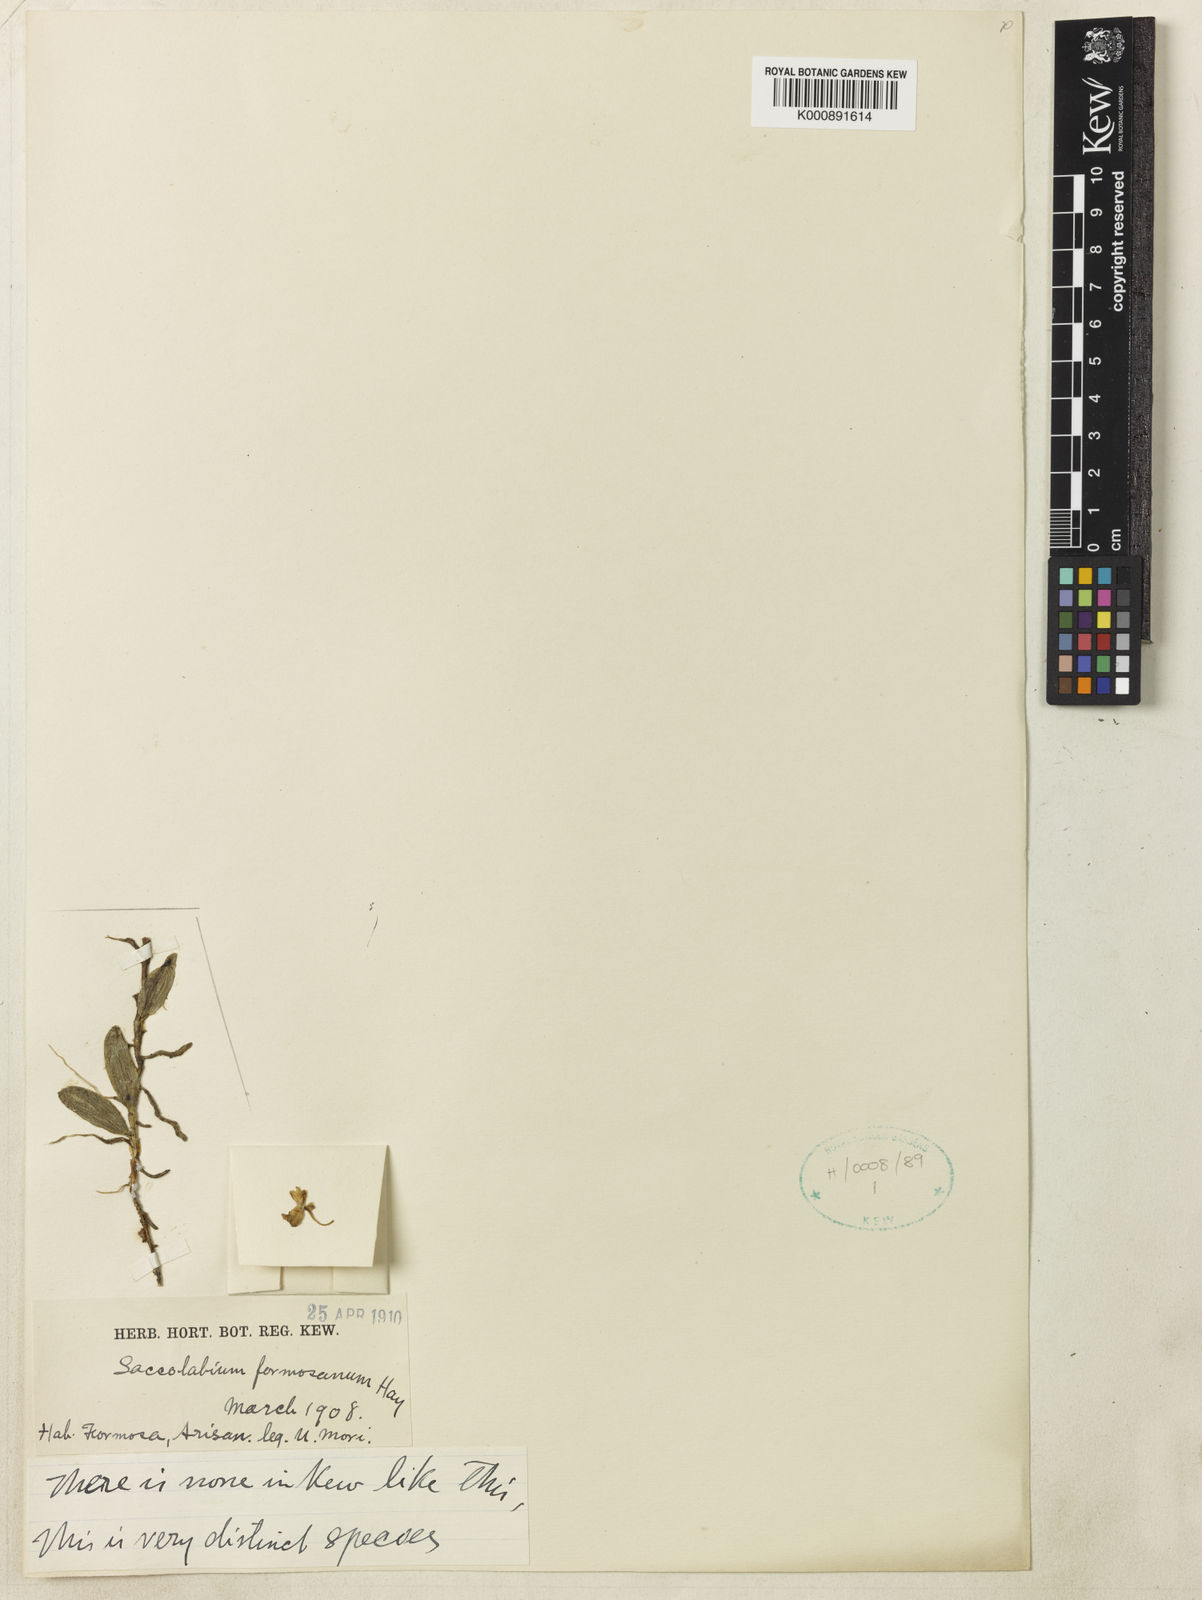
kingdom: Plantae
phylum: Tracheophyta
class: Liliopsida
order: Asparagales
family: Orchidaceae
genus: Gastrochilus
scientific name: Gastrochilus formosanus
